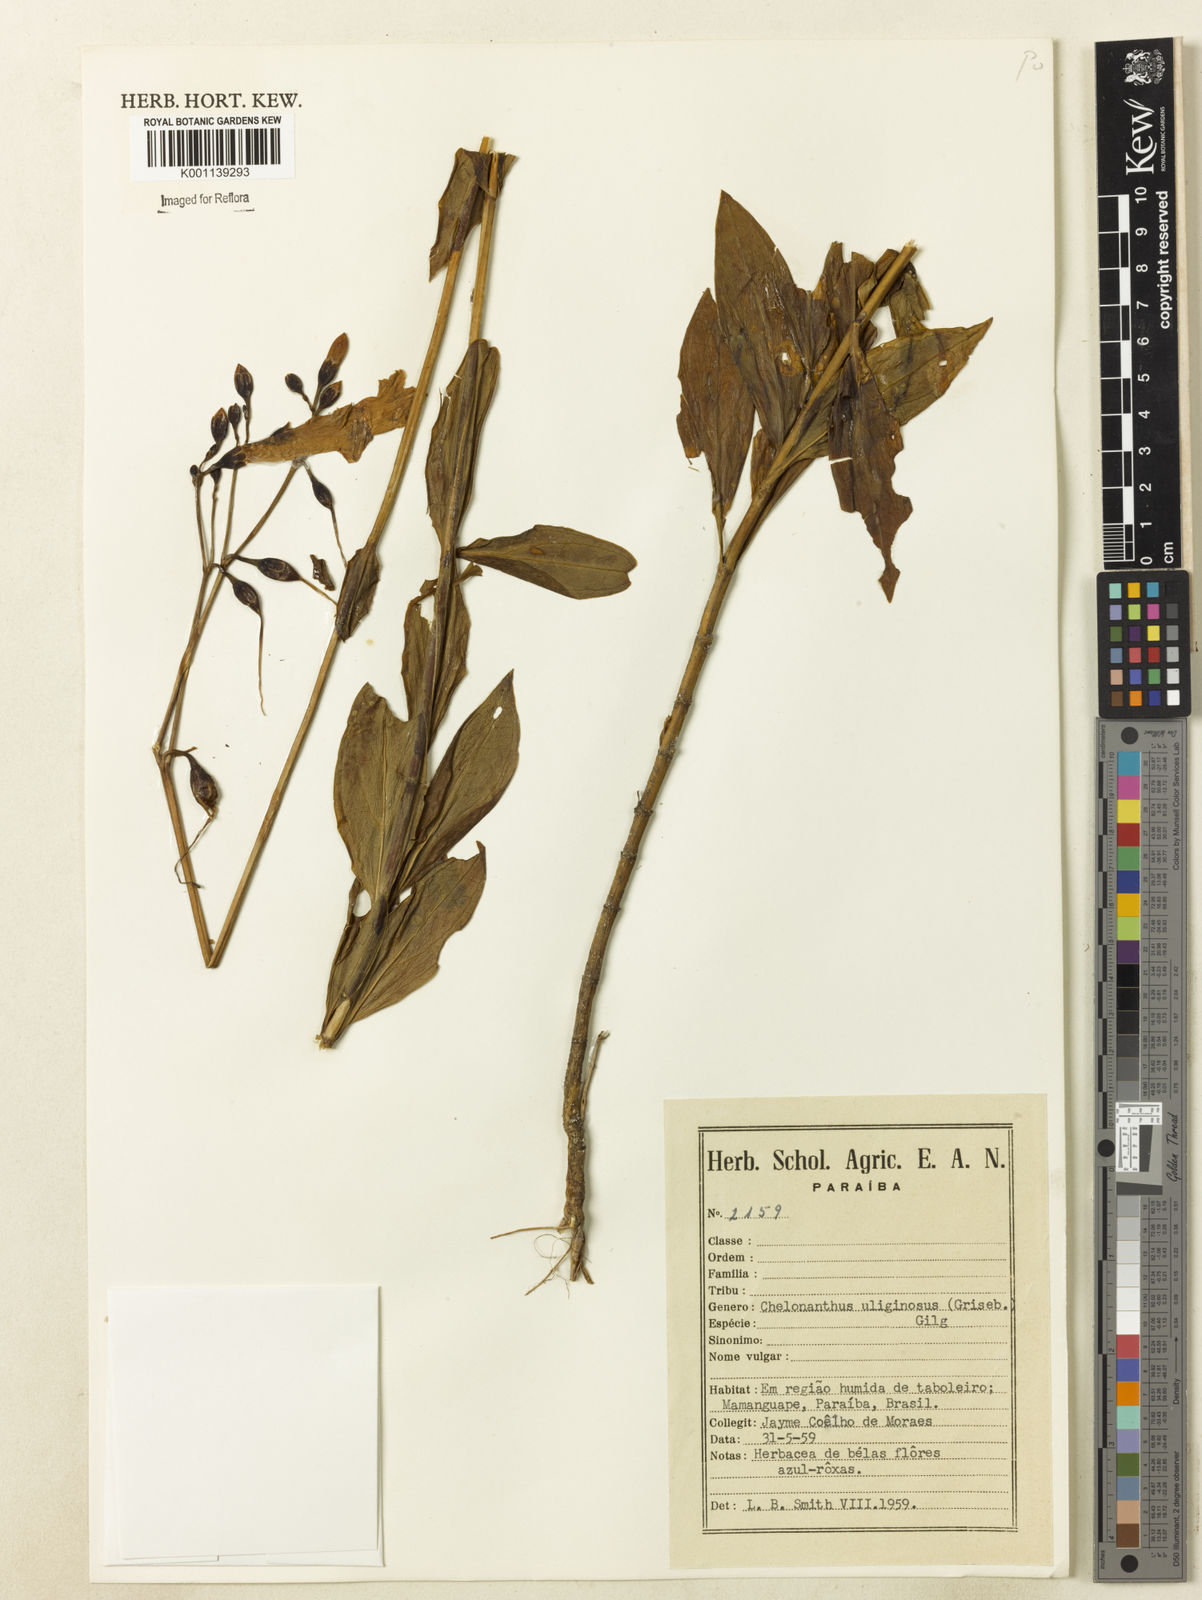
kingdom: Plantae
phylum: Tracheophyta
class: Magnoliopsida
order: Gentianales
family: Gentianaceae
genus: Chelonanthus
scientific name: Chelonanthus purpurascens
